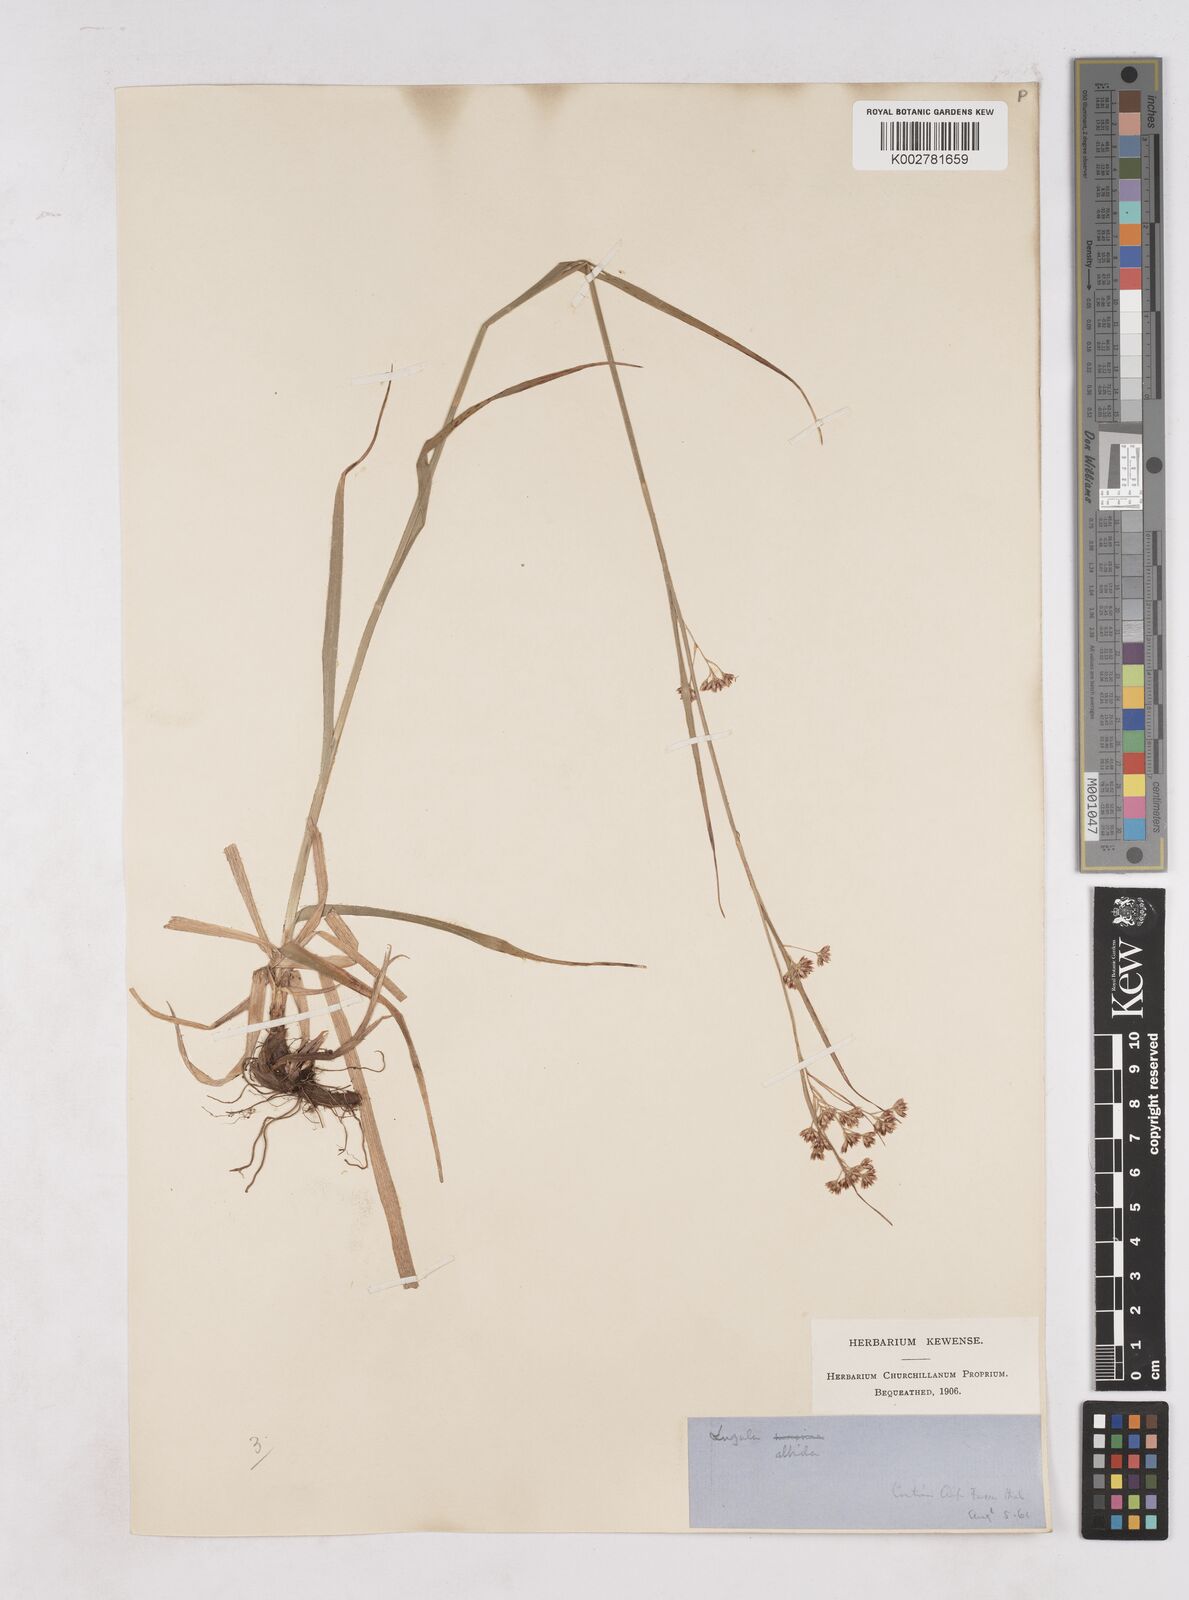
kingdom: Plantae
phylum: Tracheophyta
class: Liliopsida
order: Poales
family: Juncaceae
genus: Luzula
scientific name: Luzula luzuloides
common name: White wood-rush
